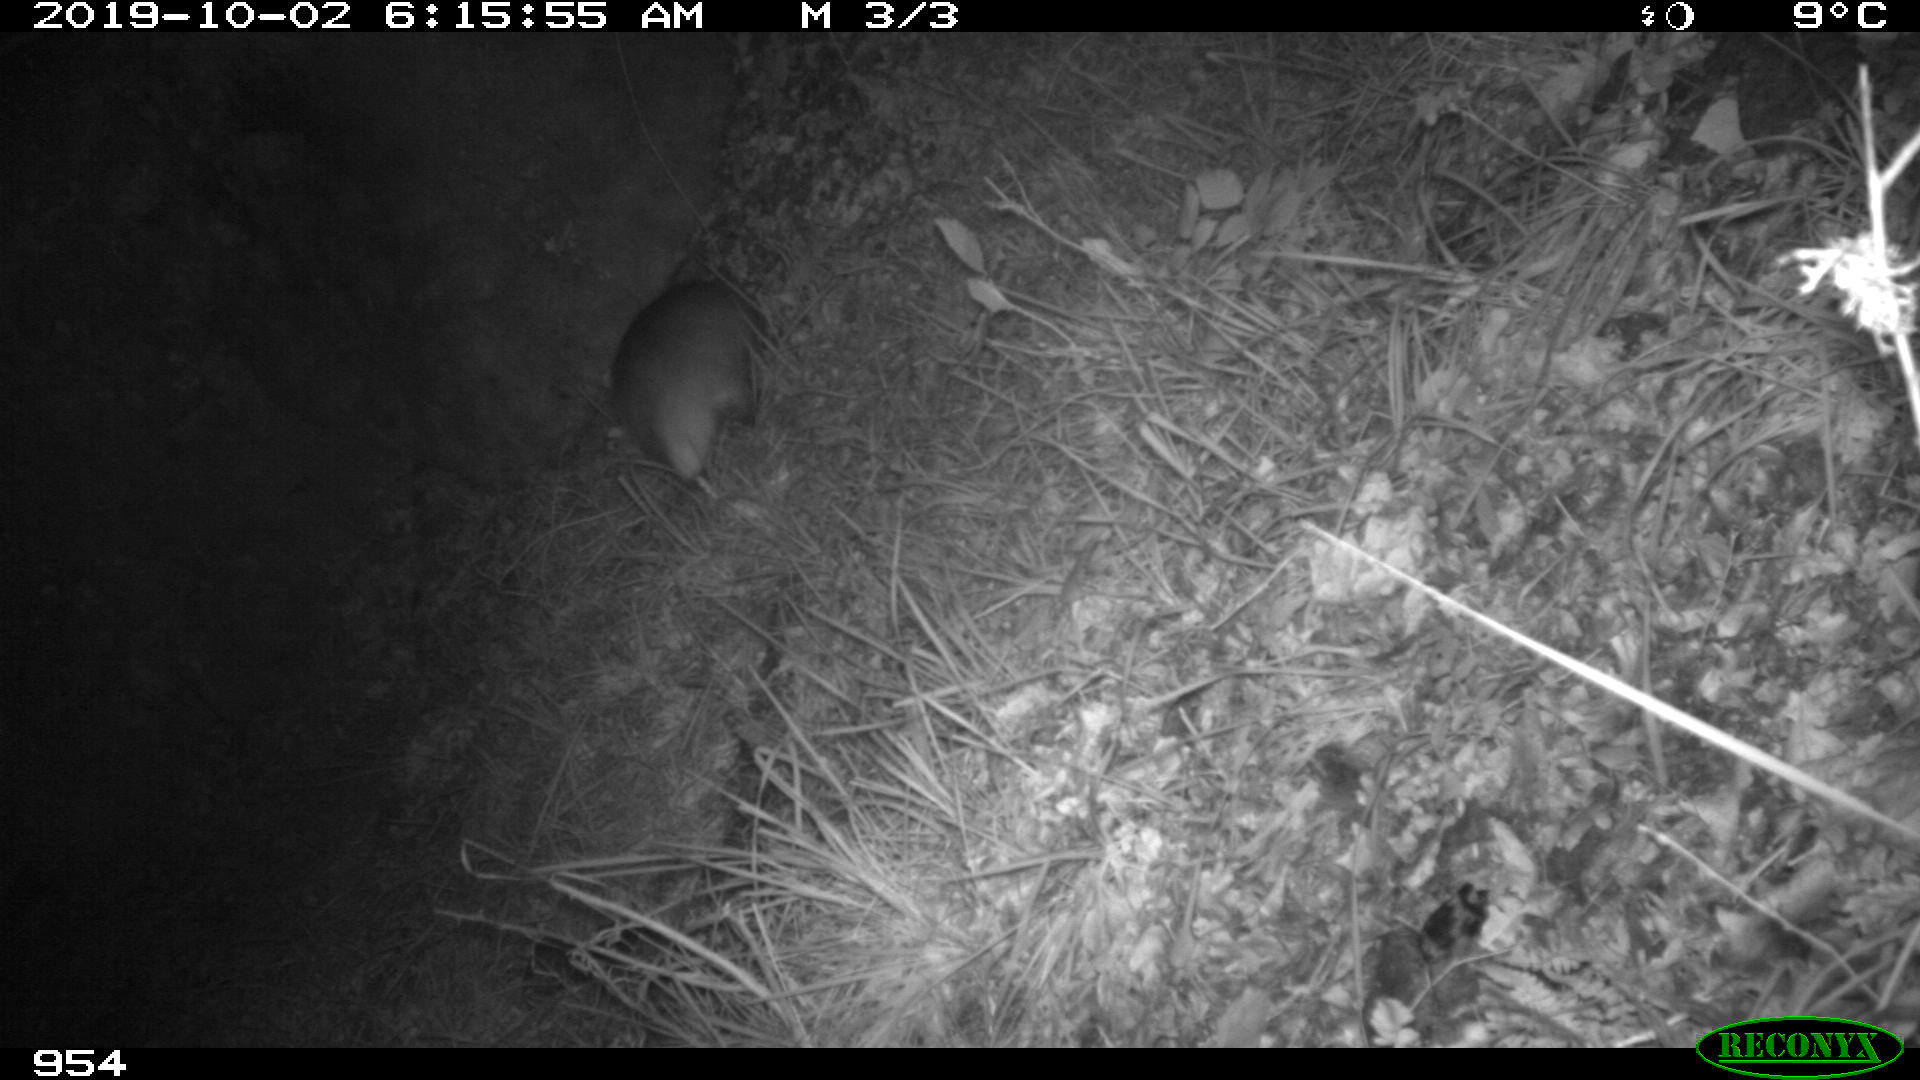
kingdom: Animalia
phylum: Chordata
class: Mammalia
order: Carnivora
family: Mustelidae
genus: Meles
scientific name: Meles meles
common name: Eurasian badger
